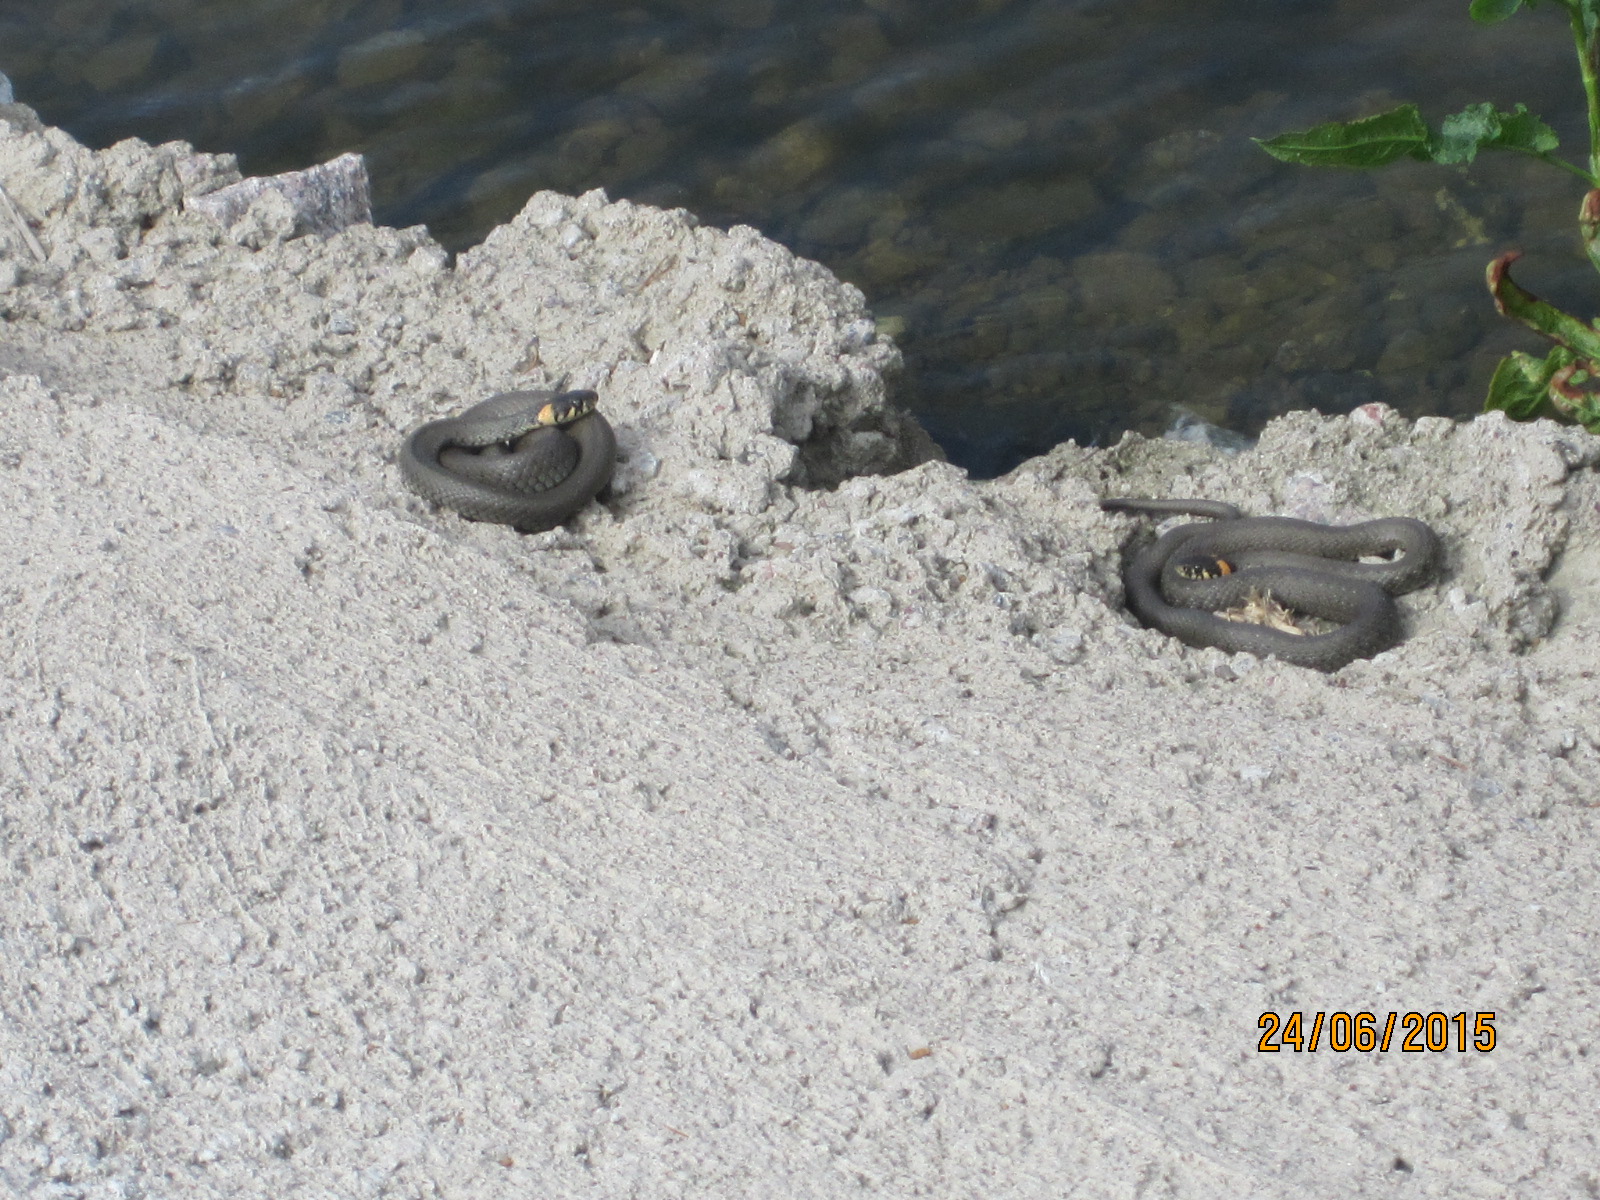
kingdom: Animalia
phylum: Chordata
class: Squamata
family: Colubridae
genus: Natrix
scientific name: Natrix natrix
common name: Grass snake
